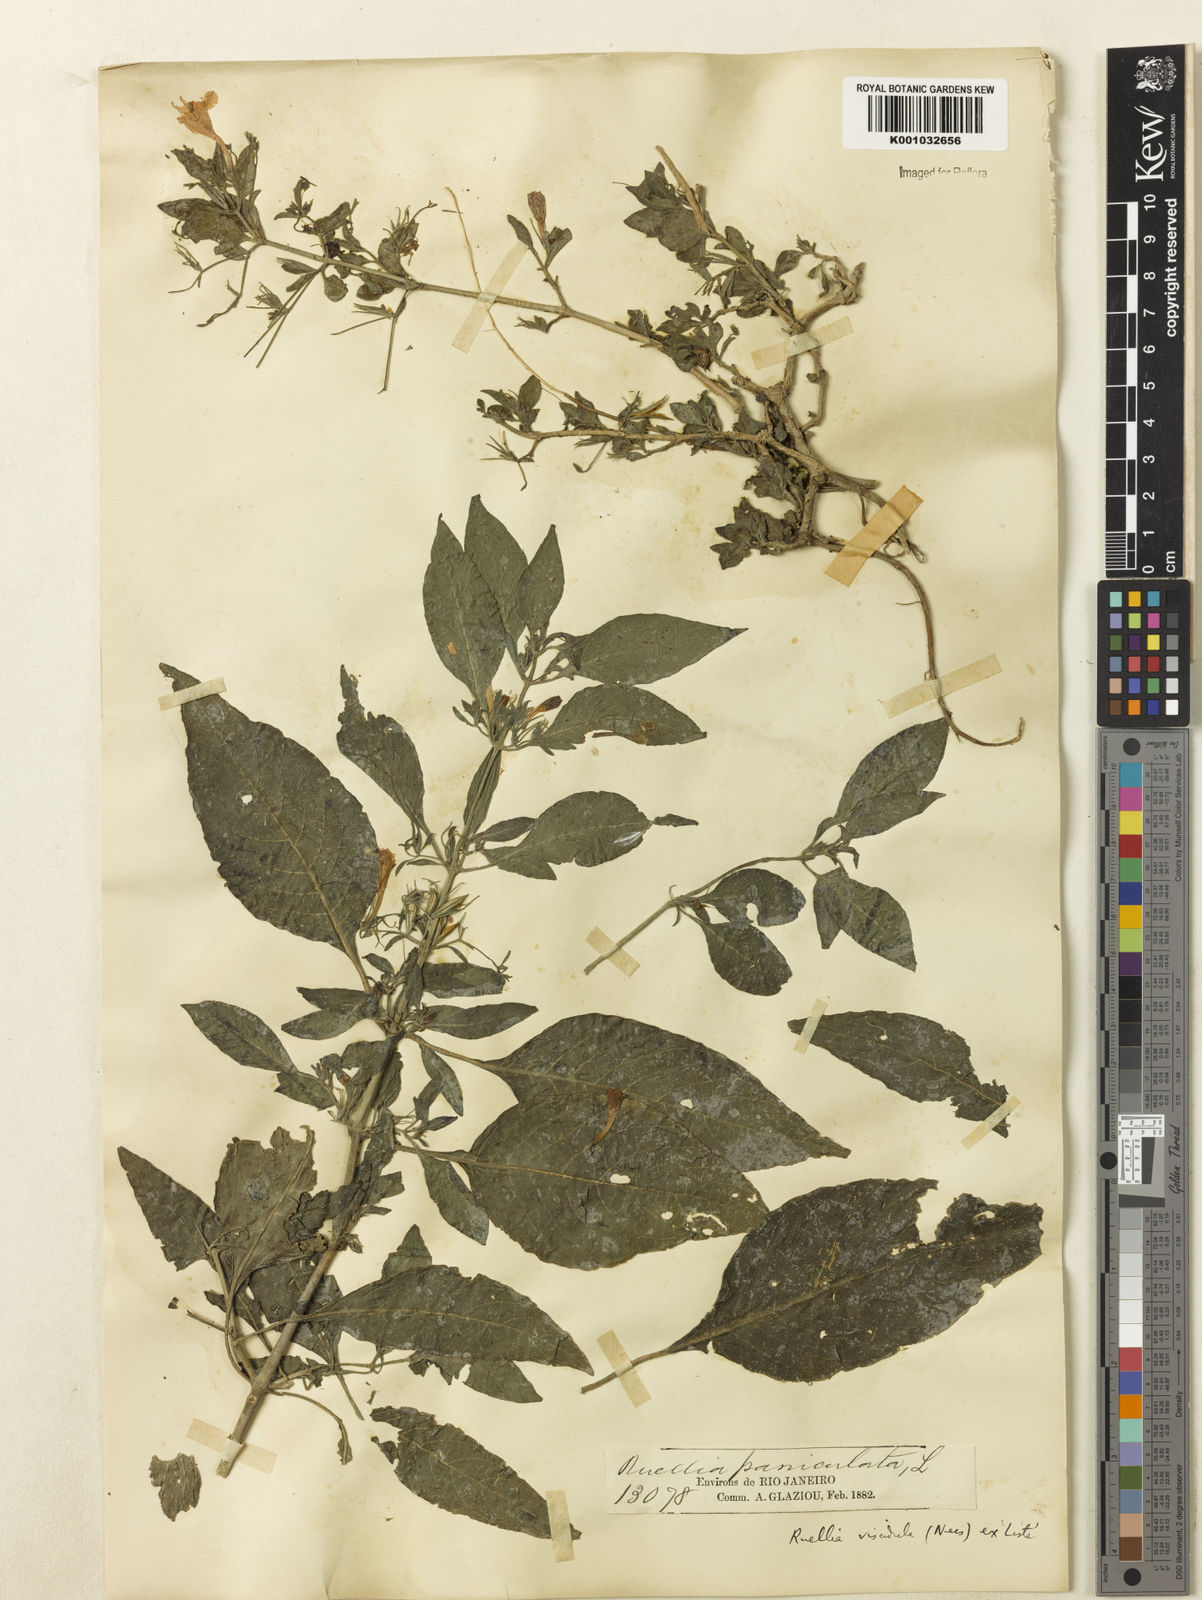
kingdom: Plantae
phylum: Tracheophyta
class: Magnoliopsida
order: Lamiales
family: Acanthaceae
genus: Ruellia
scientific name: Ruellia
